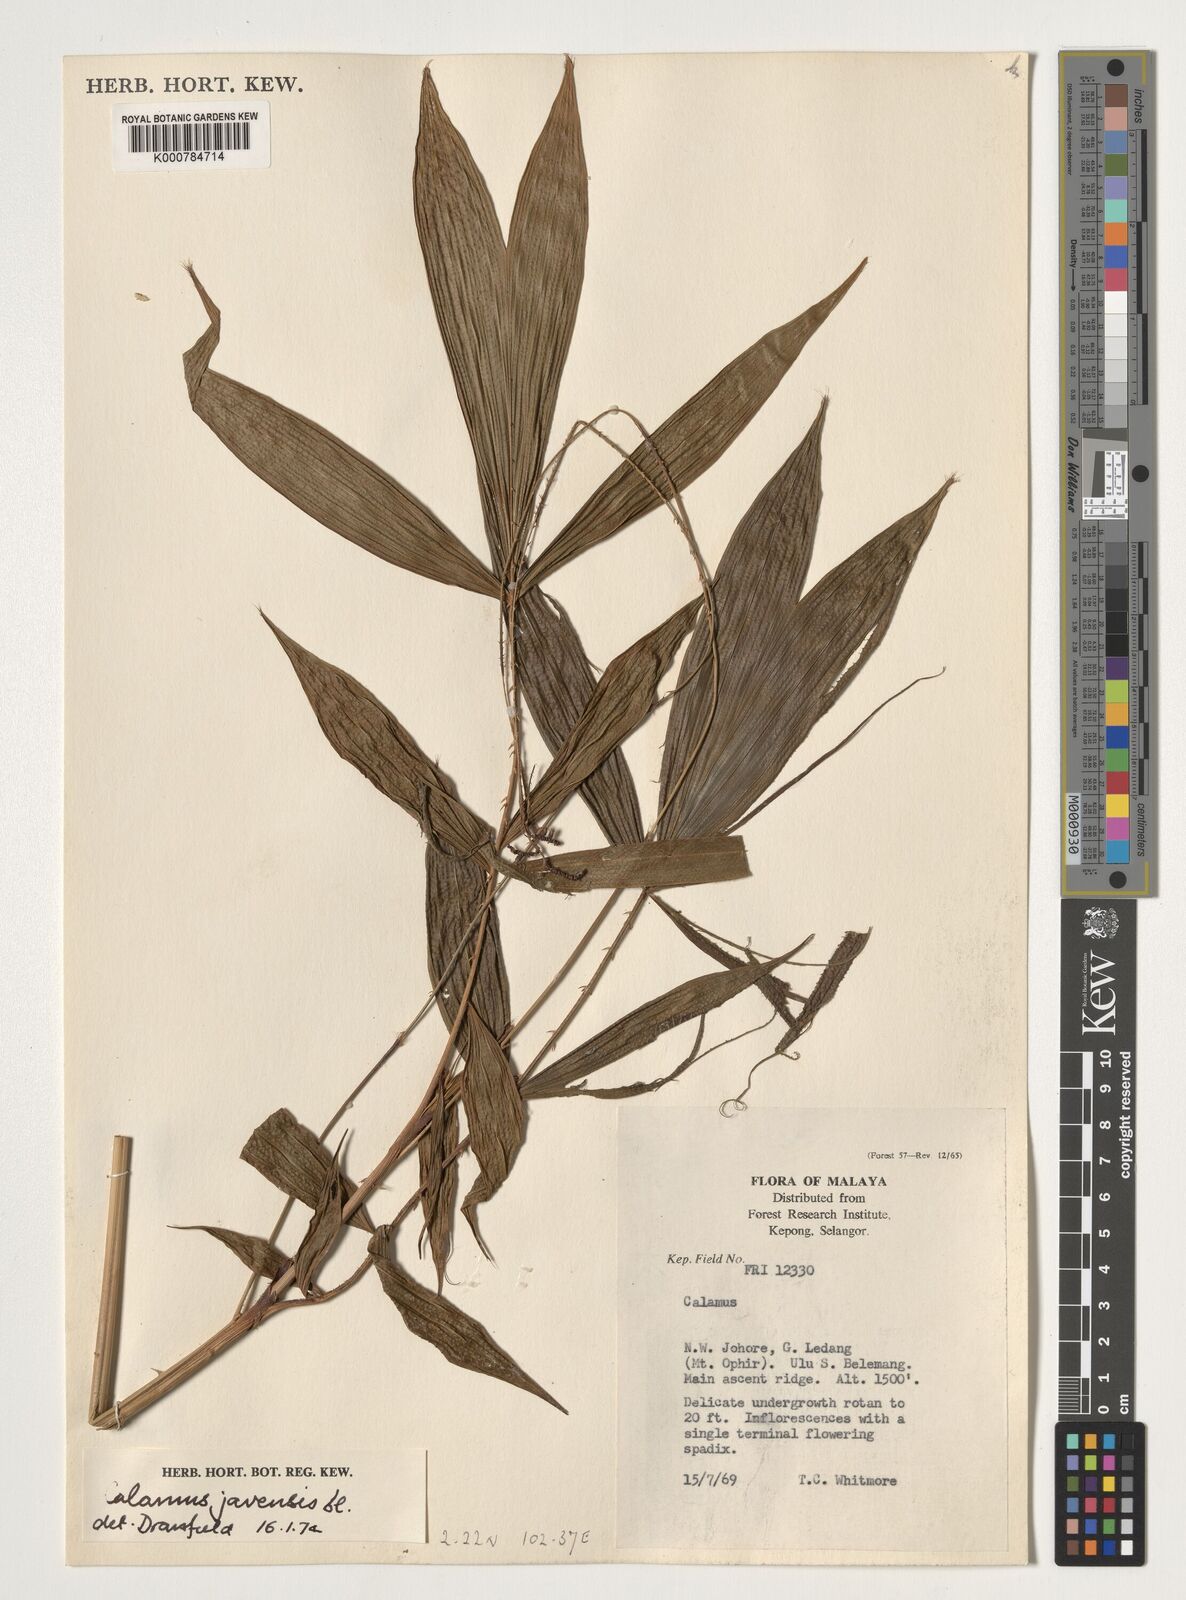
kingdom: Plantae
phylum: Tracheophyta
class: Liliopsida
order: Arecales
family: Arecaceae
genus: Calamus
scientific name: Calamus javensis
